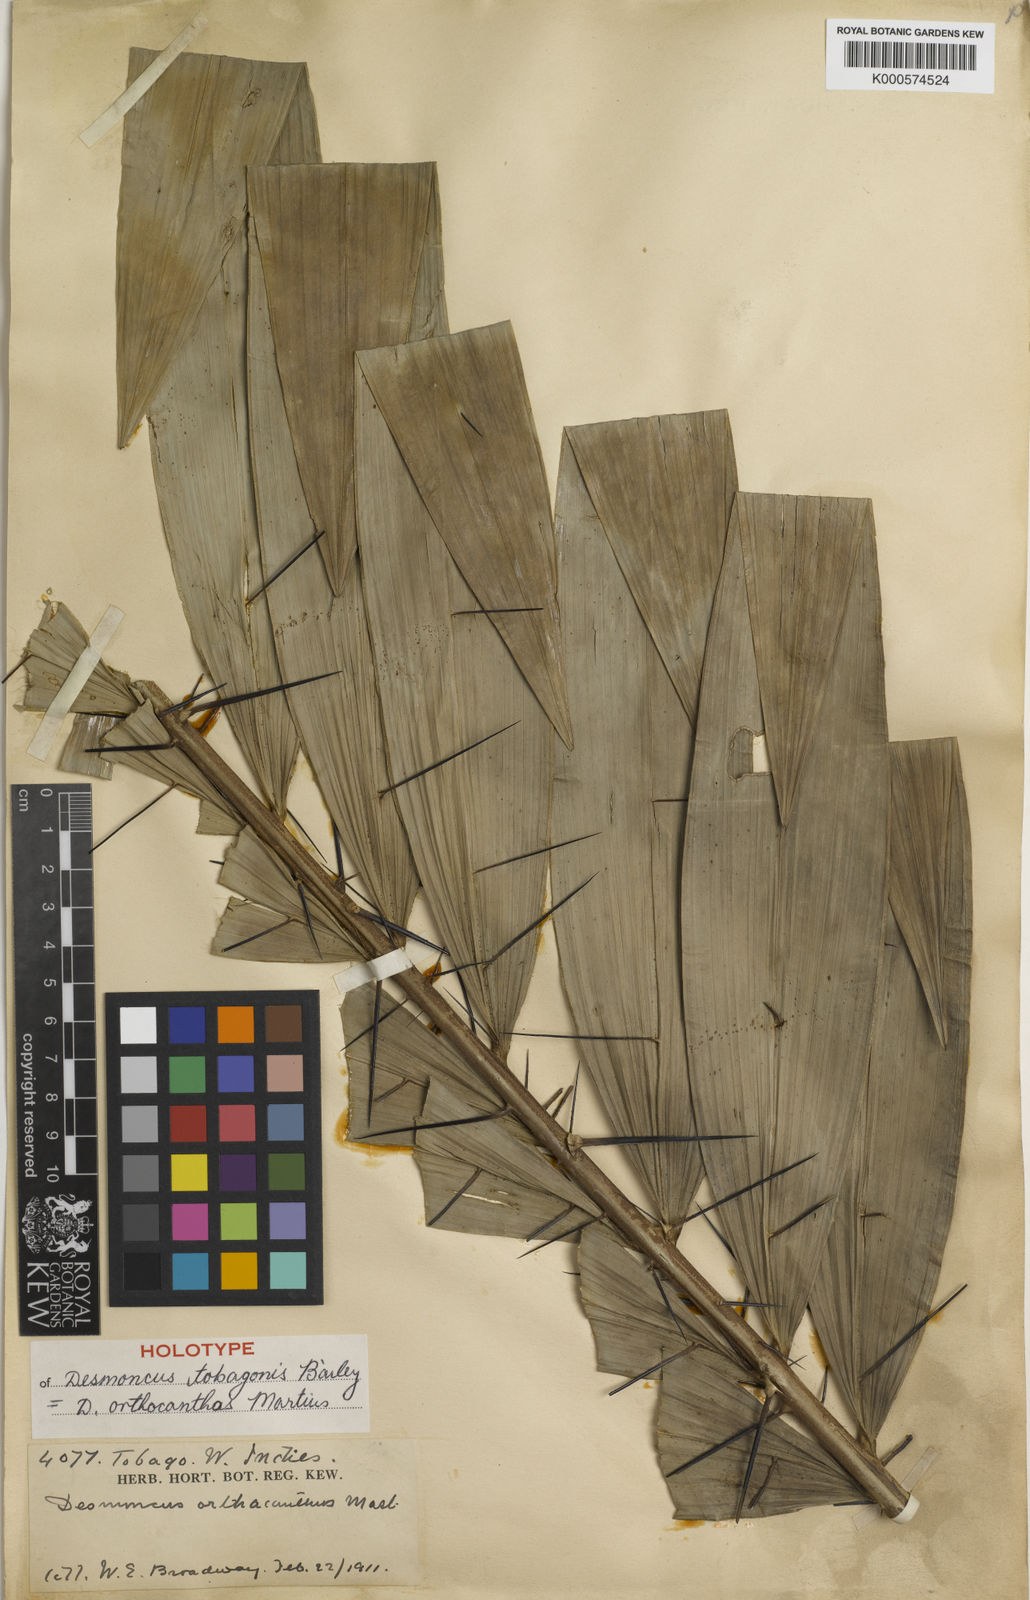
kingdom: Plantae
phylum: Tracheophyta
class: Liliopsida
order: Arecales
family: Arecaceae
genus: Desmoncus
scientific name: Desmoncus orthacanthos
